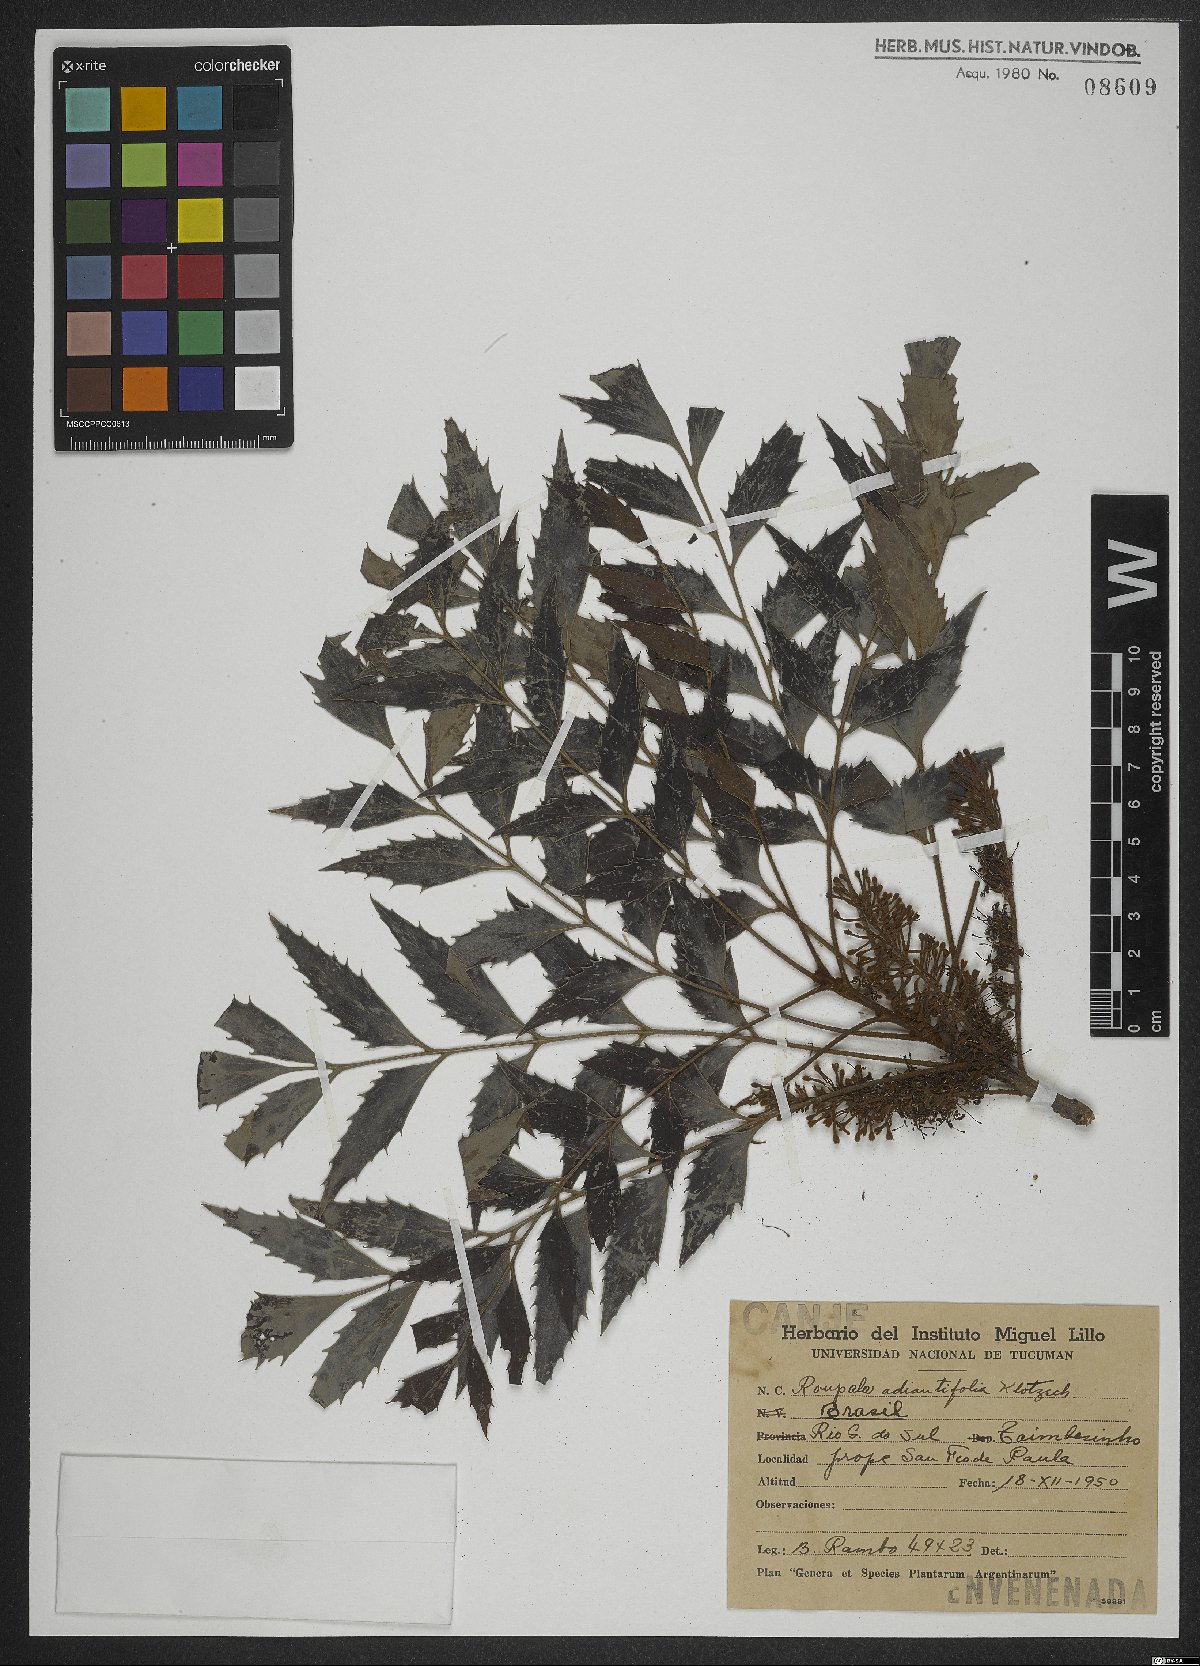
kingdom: Plantae
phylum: Tracheophyta
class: Magnoliopsida
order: Proteales
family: Proteaceae
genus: Roupala
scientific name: Roupala montana
